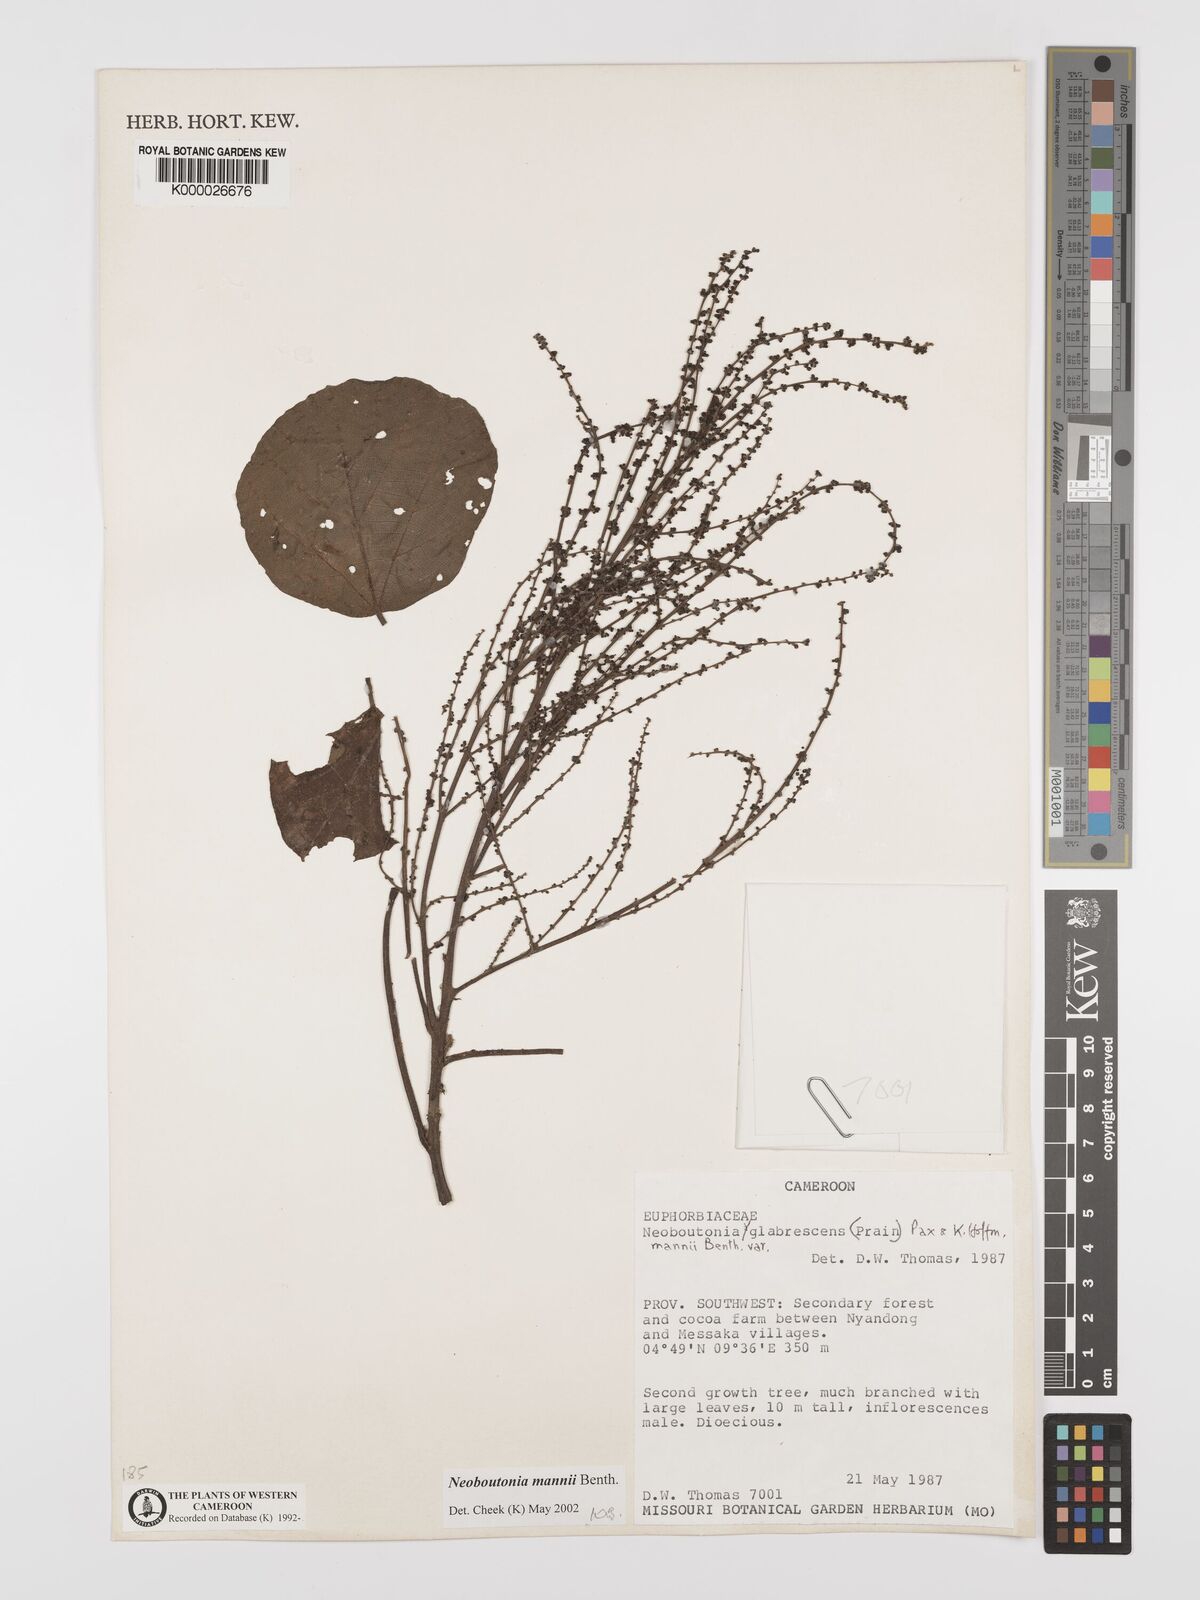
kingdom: Plantae
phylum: Tracheophyta
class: Magnoliopsida
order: Malpighiales
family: Euphorbiaceae
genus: Neoboutonia
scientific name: Neoboutonia mannii
